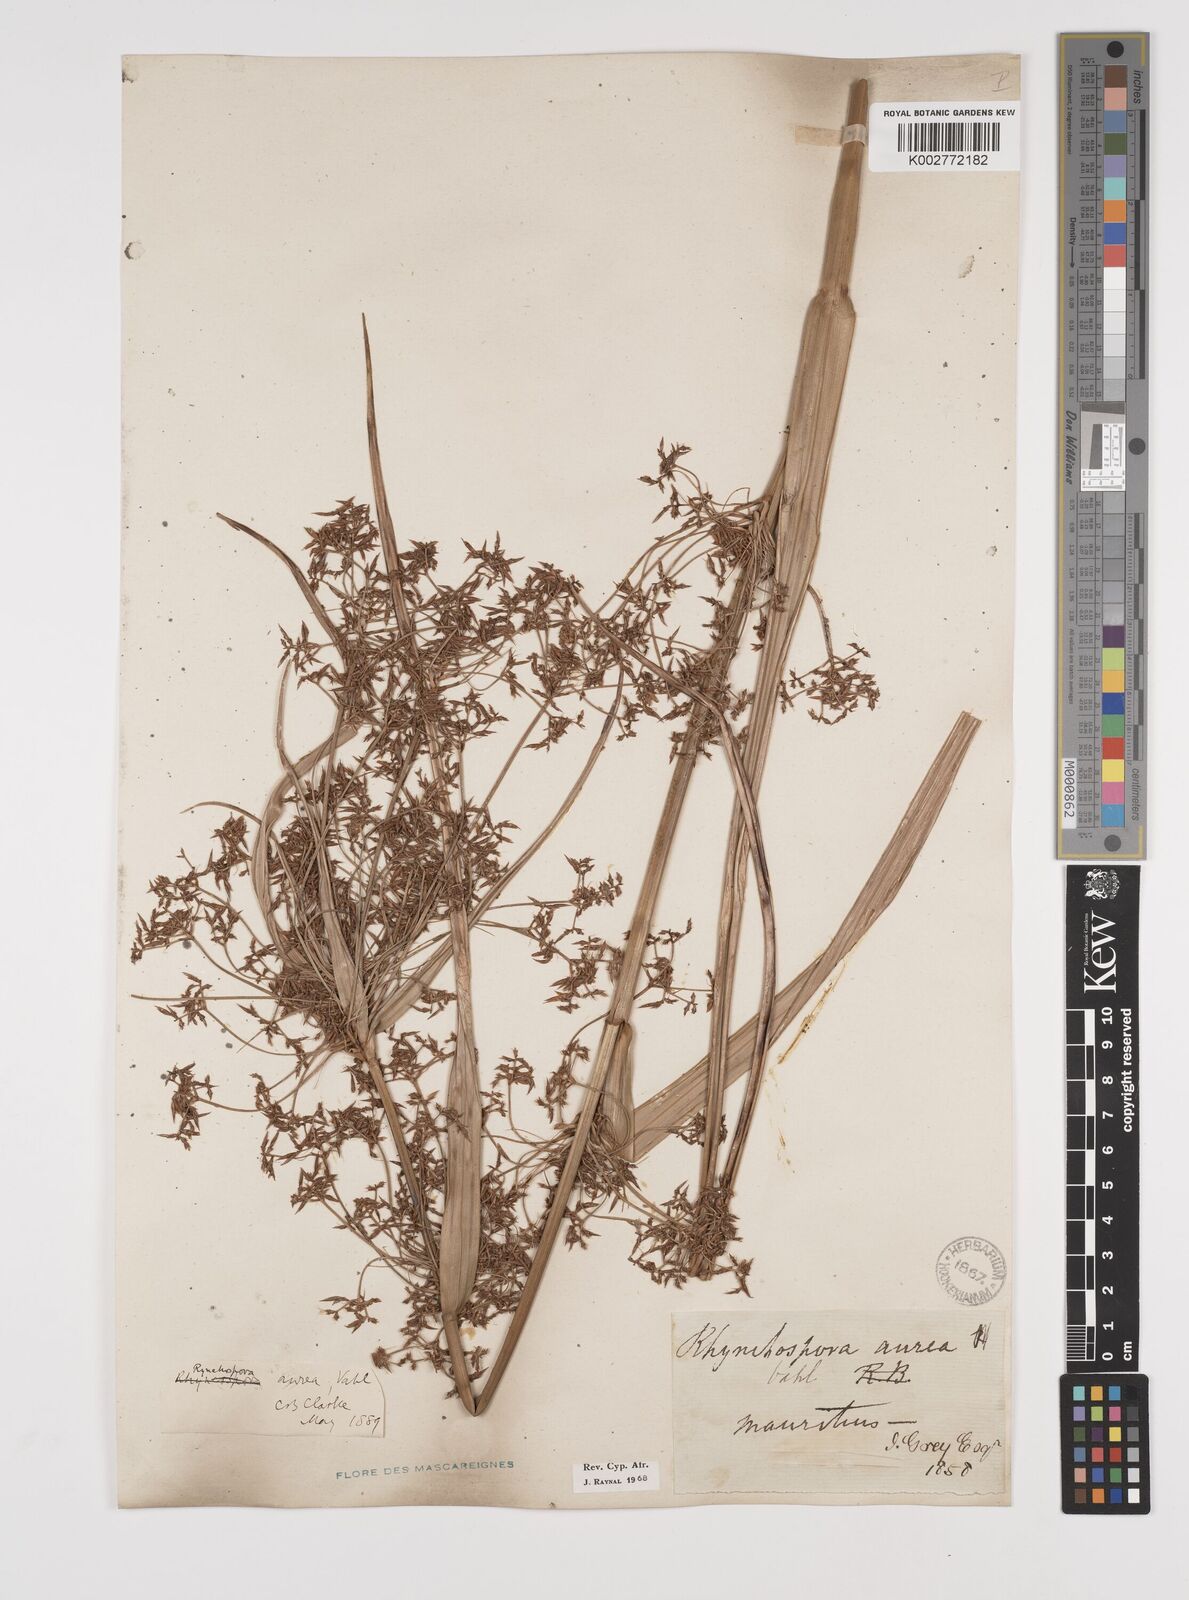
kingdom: Plantae
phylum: Tracheophyta
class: Liliopsida
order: Poales
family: Cyperaceae
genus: Rhynchospora
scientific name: Rhynchospora corymbosa
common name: Golden beak sedge
